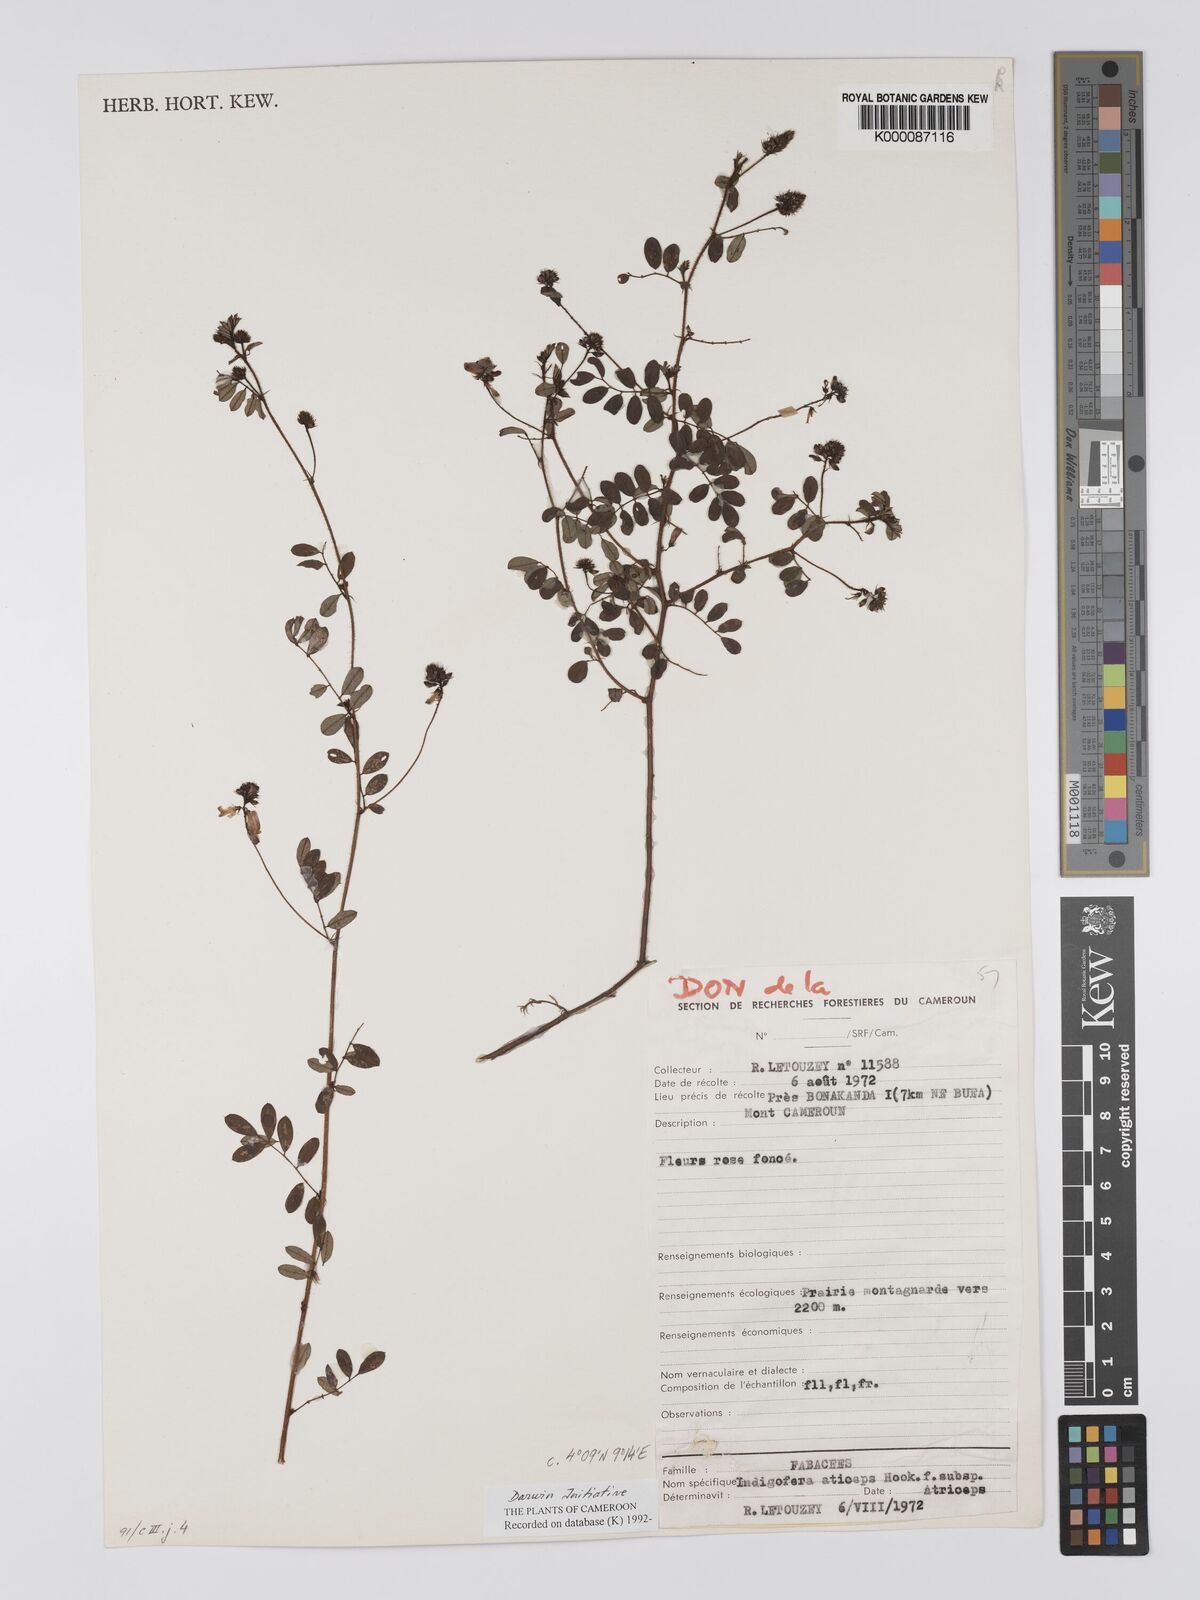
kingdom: Plantae
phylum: Tracheophyta
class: Magnoliopsida
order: Fabales
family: Fabaceae
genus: Indigofera
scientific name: Indigofera atriceps
